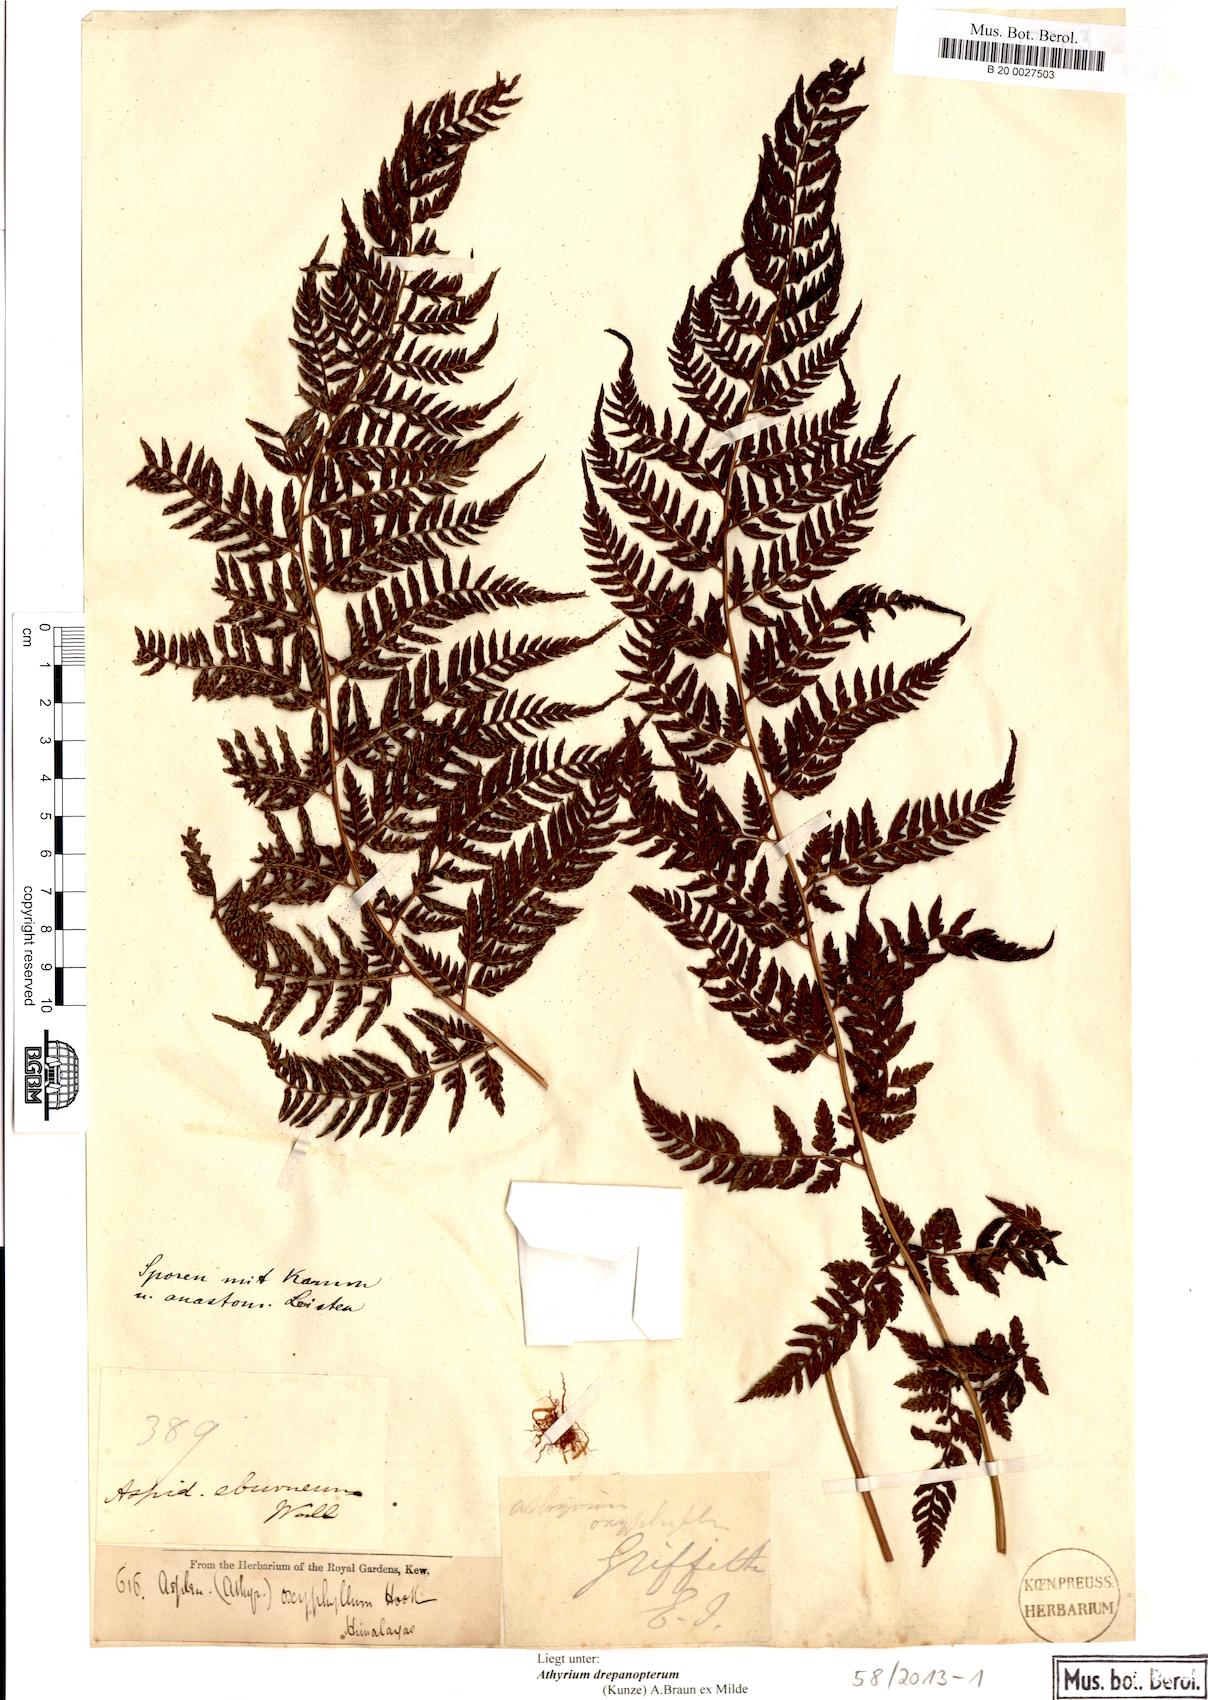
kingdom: Plantae
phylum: Tracheophyta
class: Polypodiopsida
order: Polypodiales
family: Athyriaceae
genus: Athyrium
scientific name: Athyrium drepanopteron
